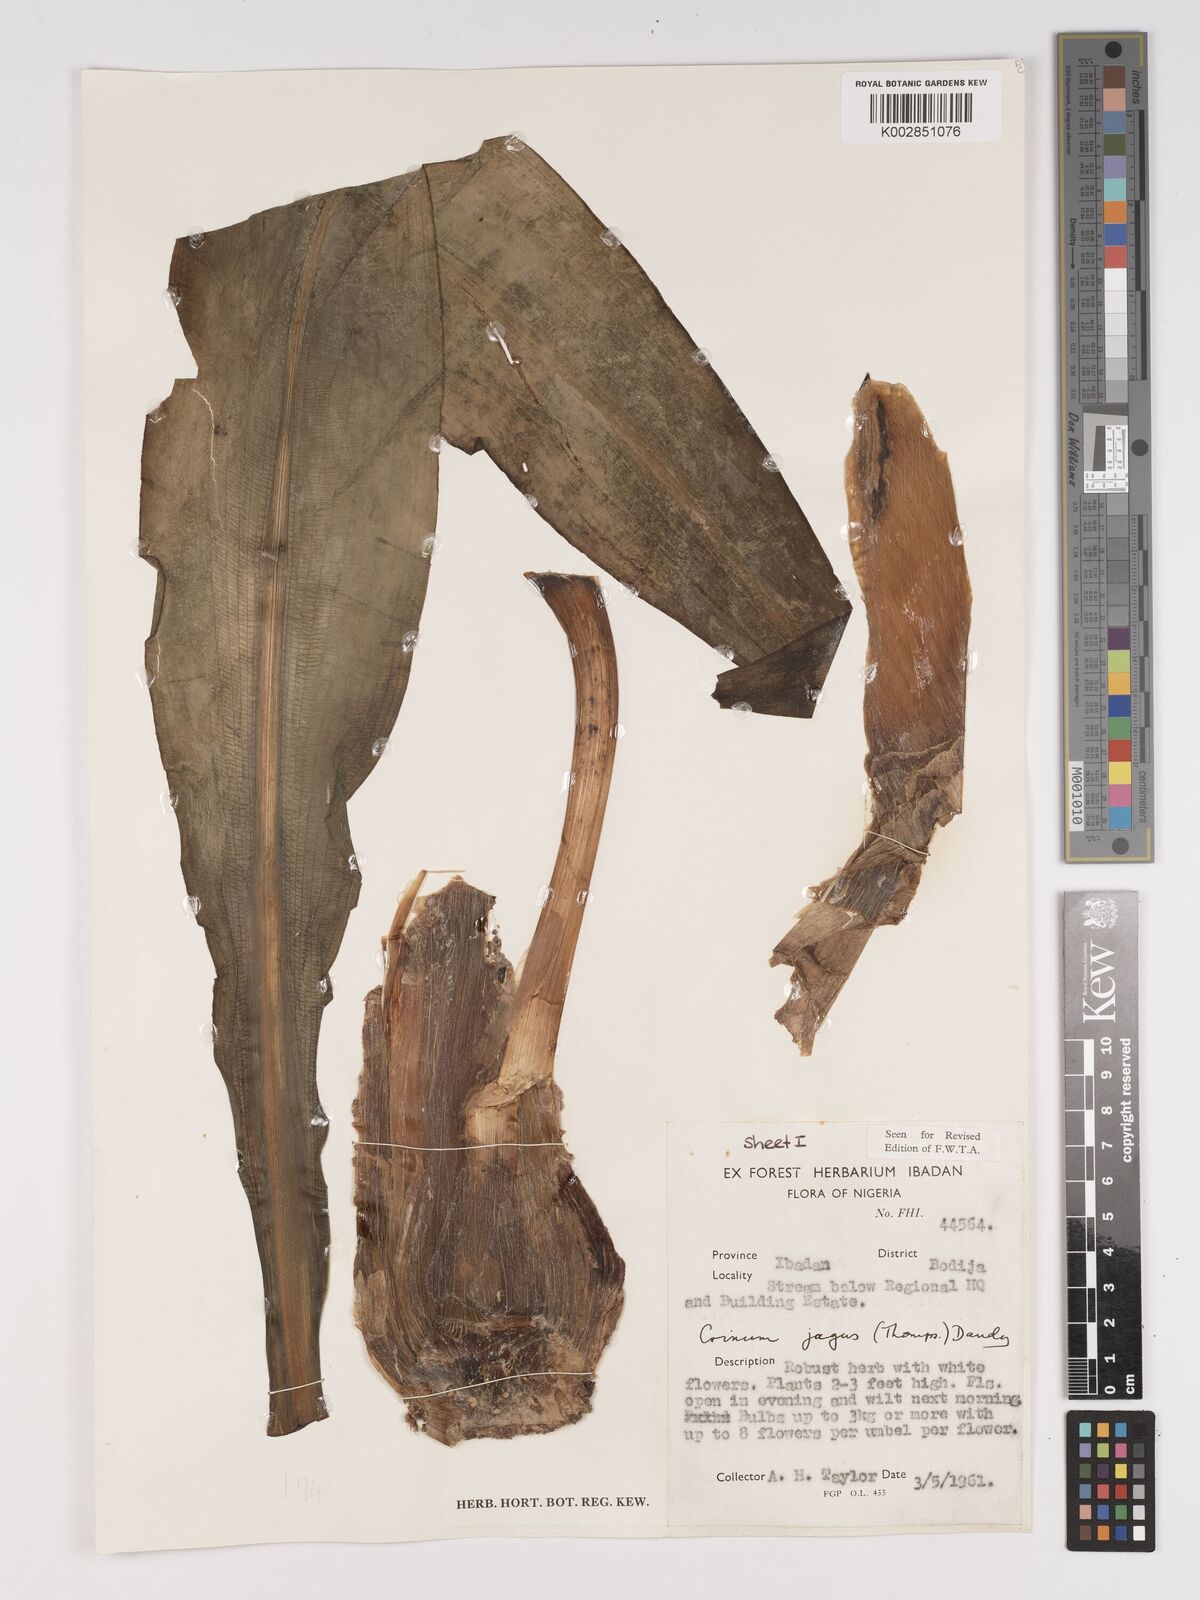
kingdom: Plantae
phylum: Tracheophyta
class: Liliopsida
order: Asparagales
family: Amaryllidaceae
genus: Crinum
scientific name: Crinum jagus
